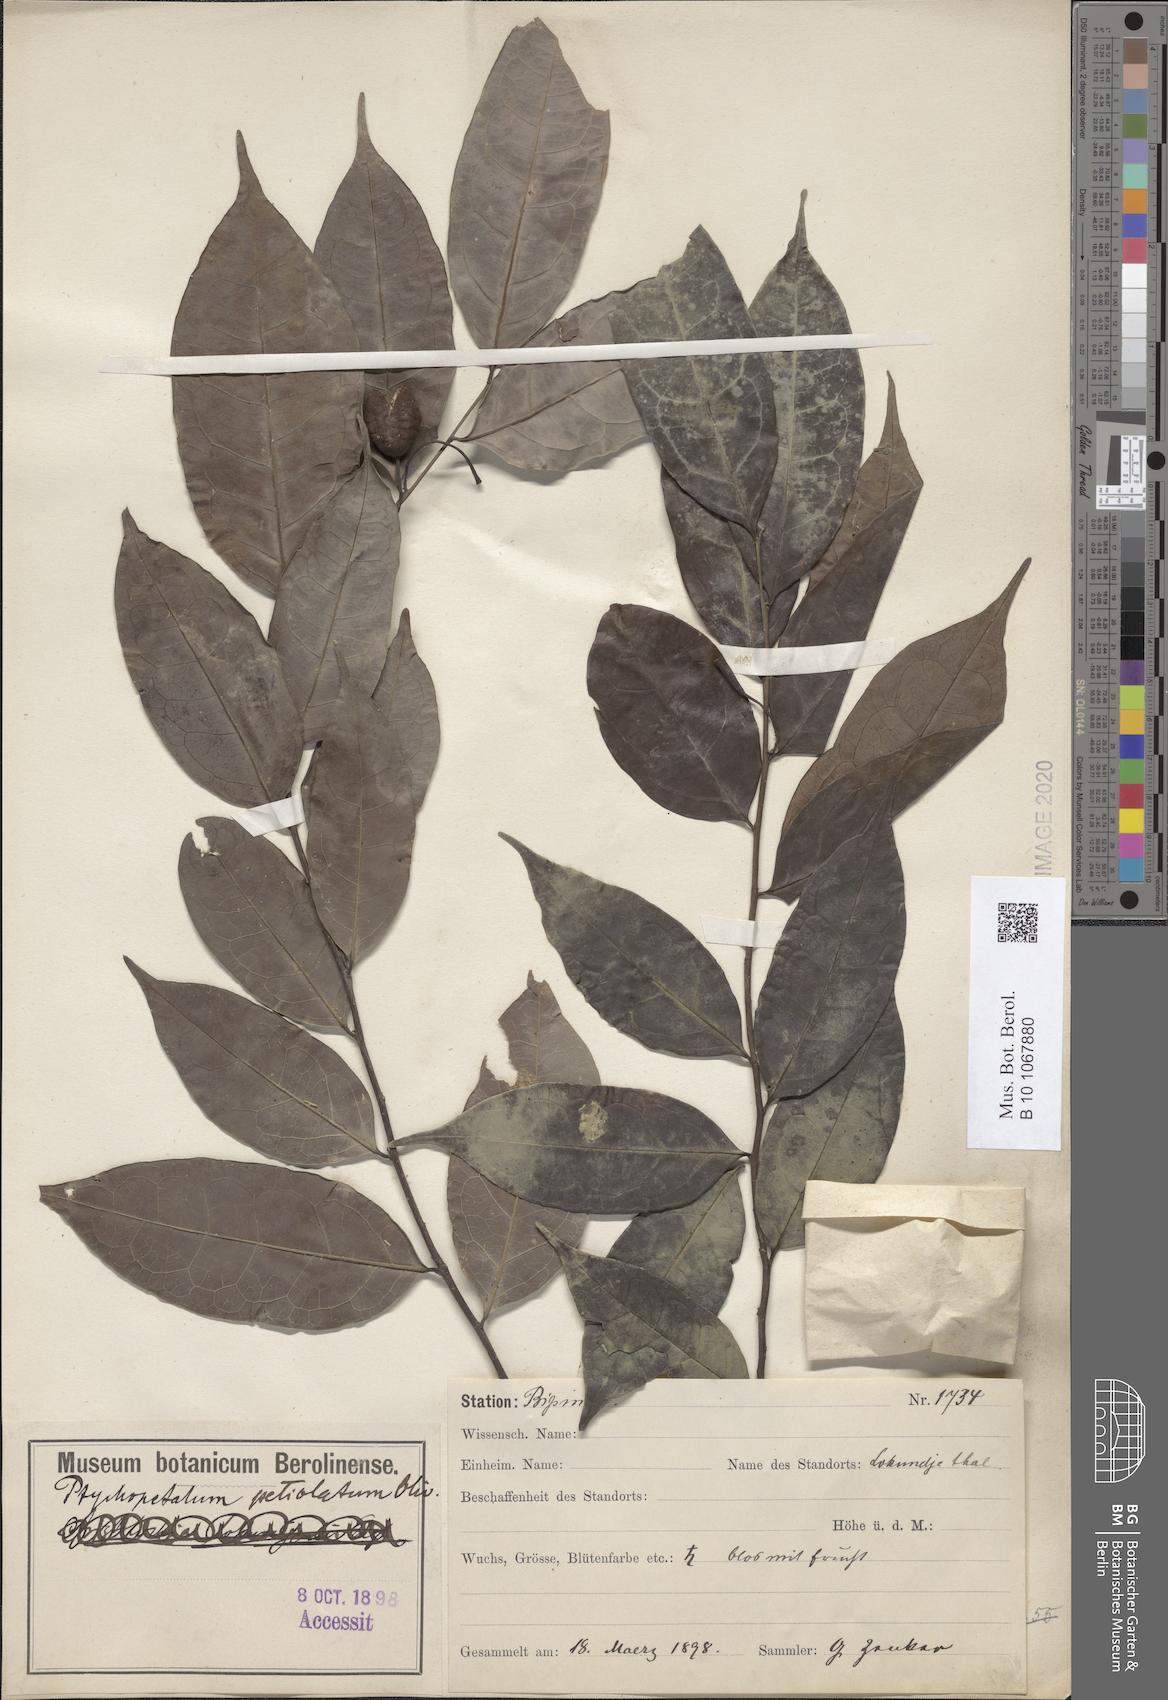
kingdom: Plantae
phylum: Tracheophyta
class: Magnoliopsida
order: Santalales
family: Olacaceae
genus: Ptychopetalum
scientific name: Ptychopetalum petiolatum
